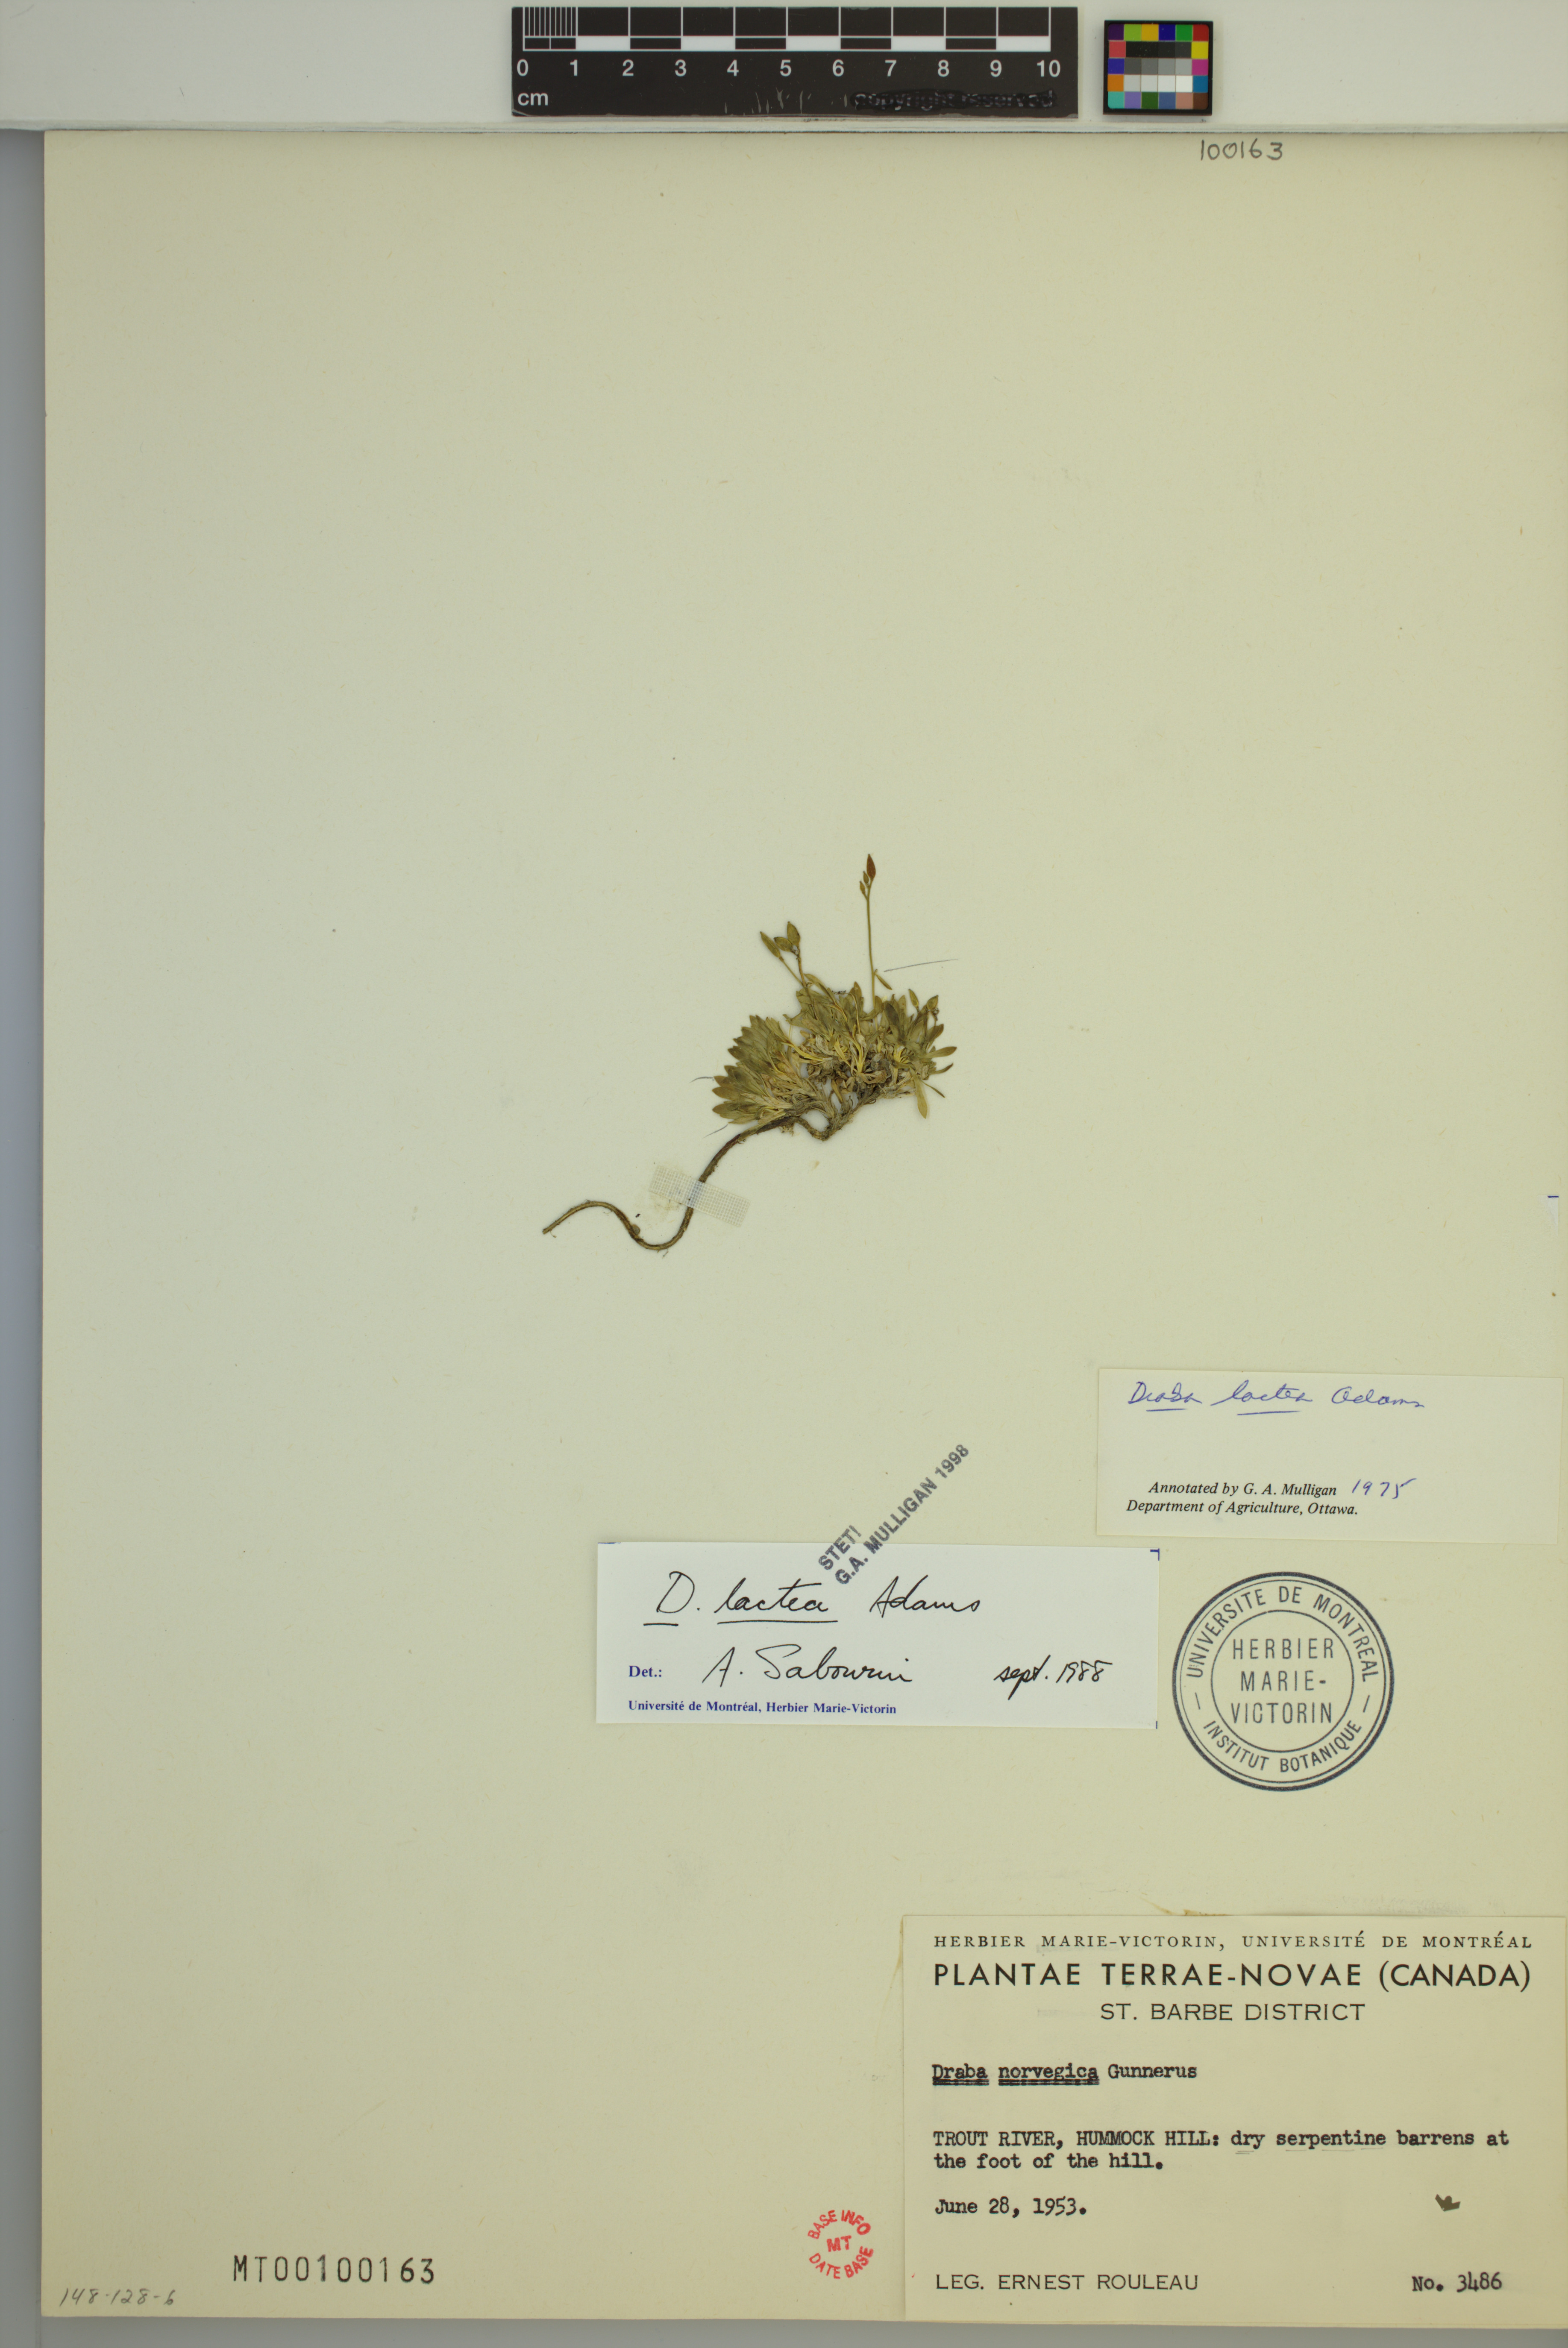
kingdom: Plantae
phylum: Tracheophyta
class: Magnoliopsida
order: Brassicales
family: Brassicaceae
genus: Draba
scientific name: Draba lactea
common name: Milky draba
